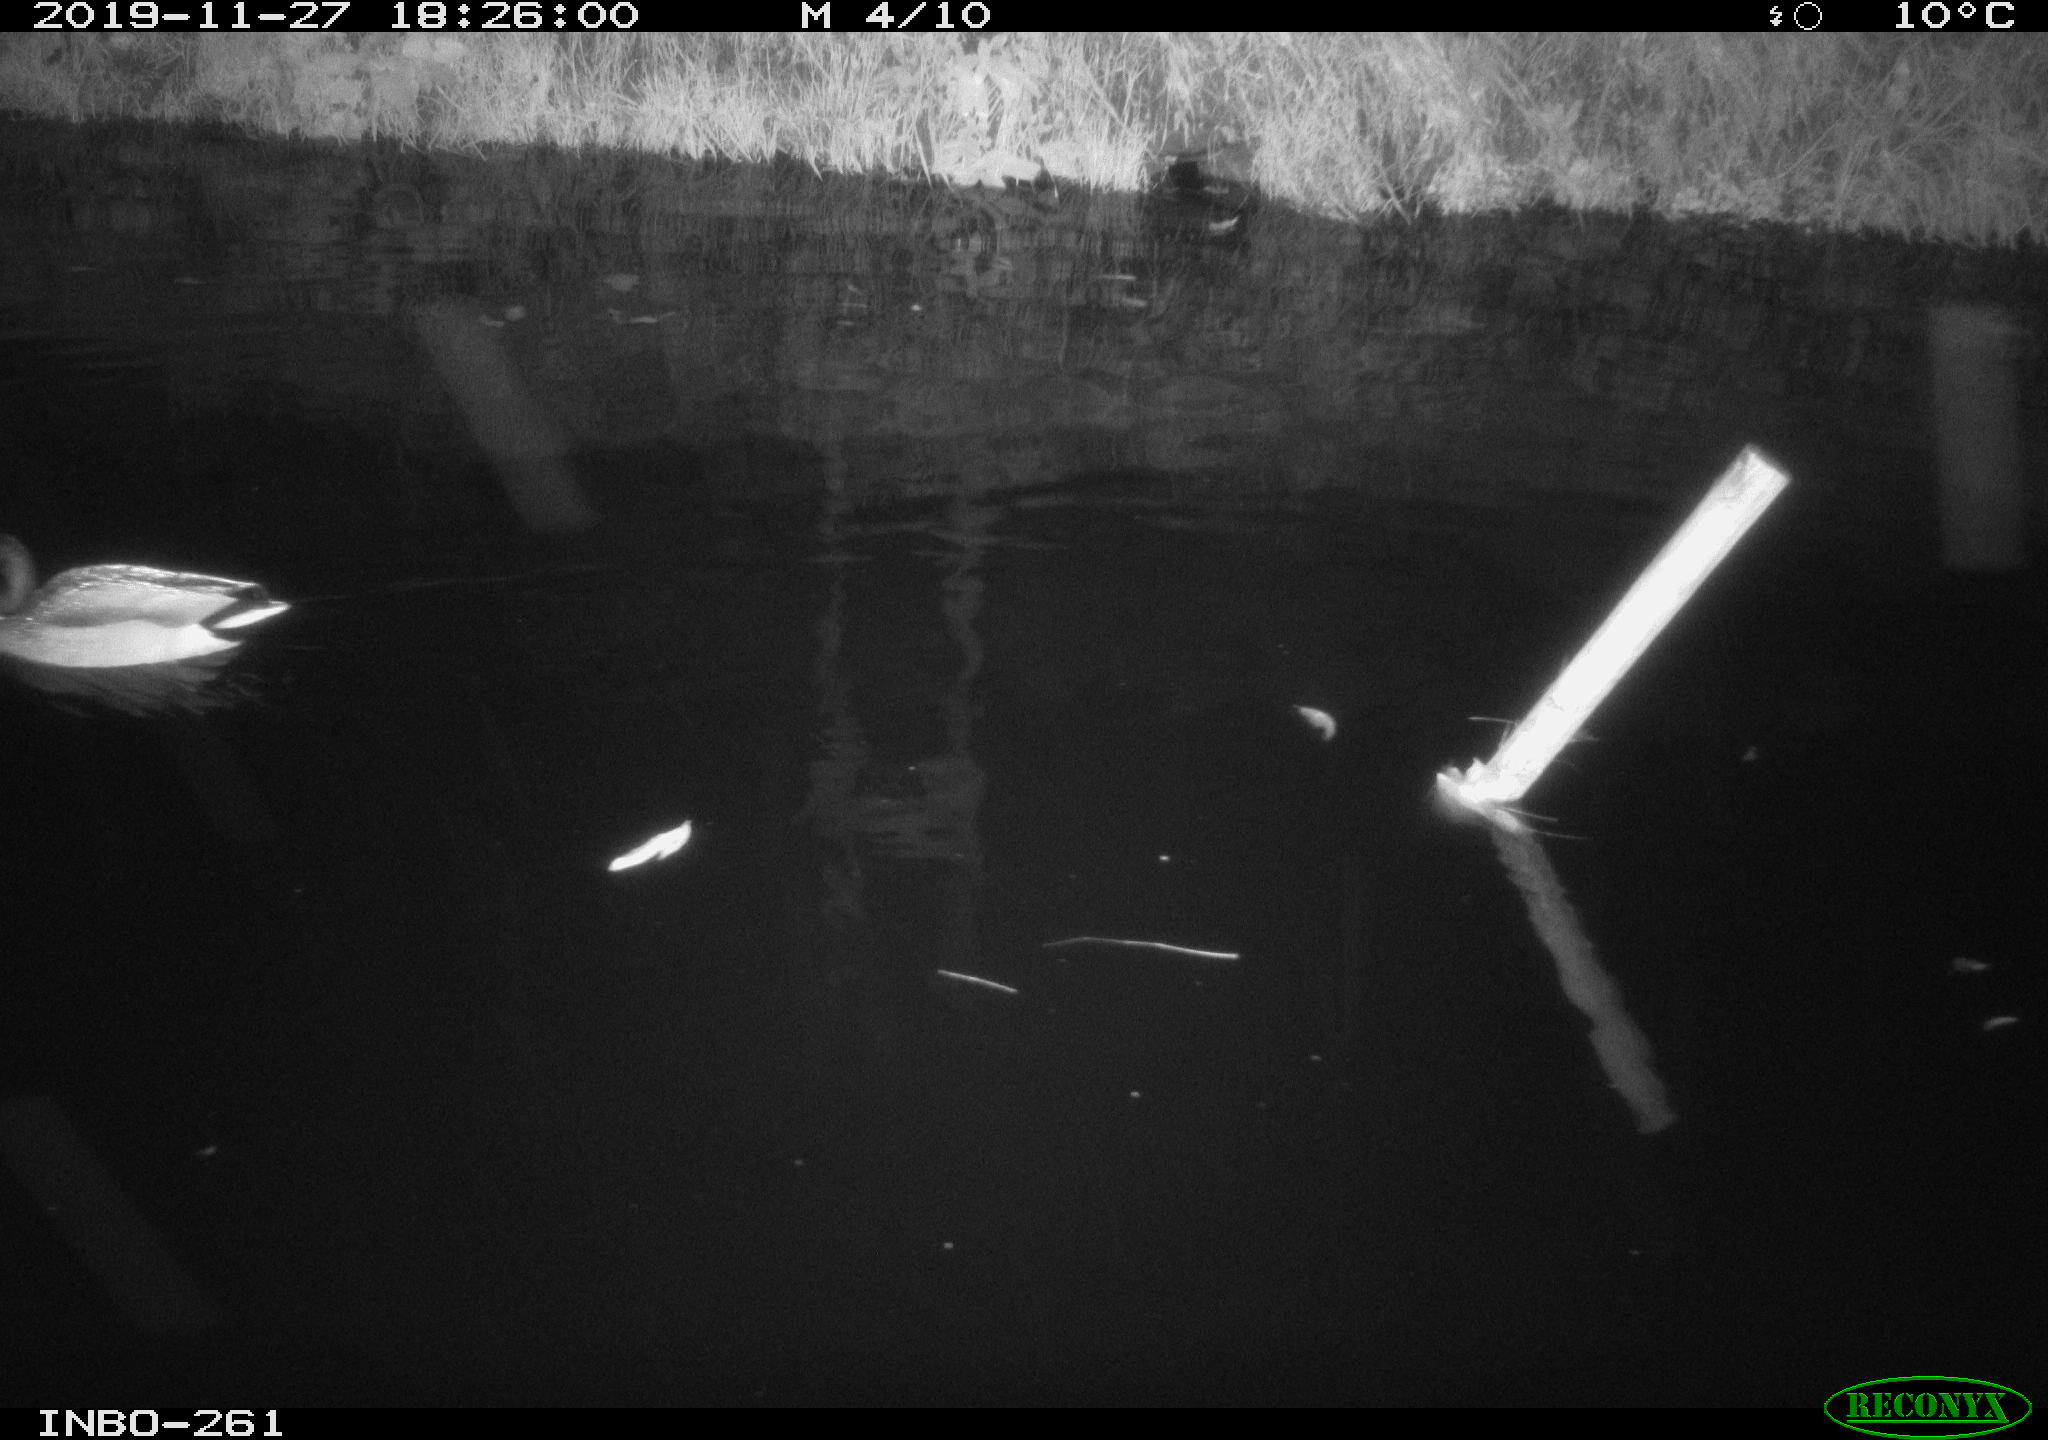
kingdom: Animalia
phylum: Chordata
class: Aves
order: Anseriformes
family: Anatidae
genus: Anas
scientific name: Anas platyrhynchos
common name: Mallard
